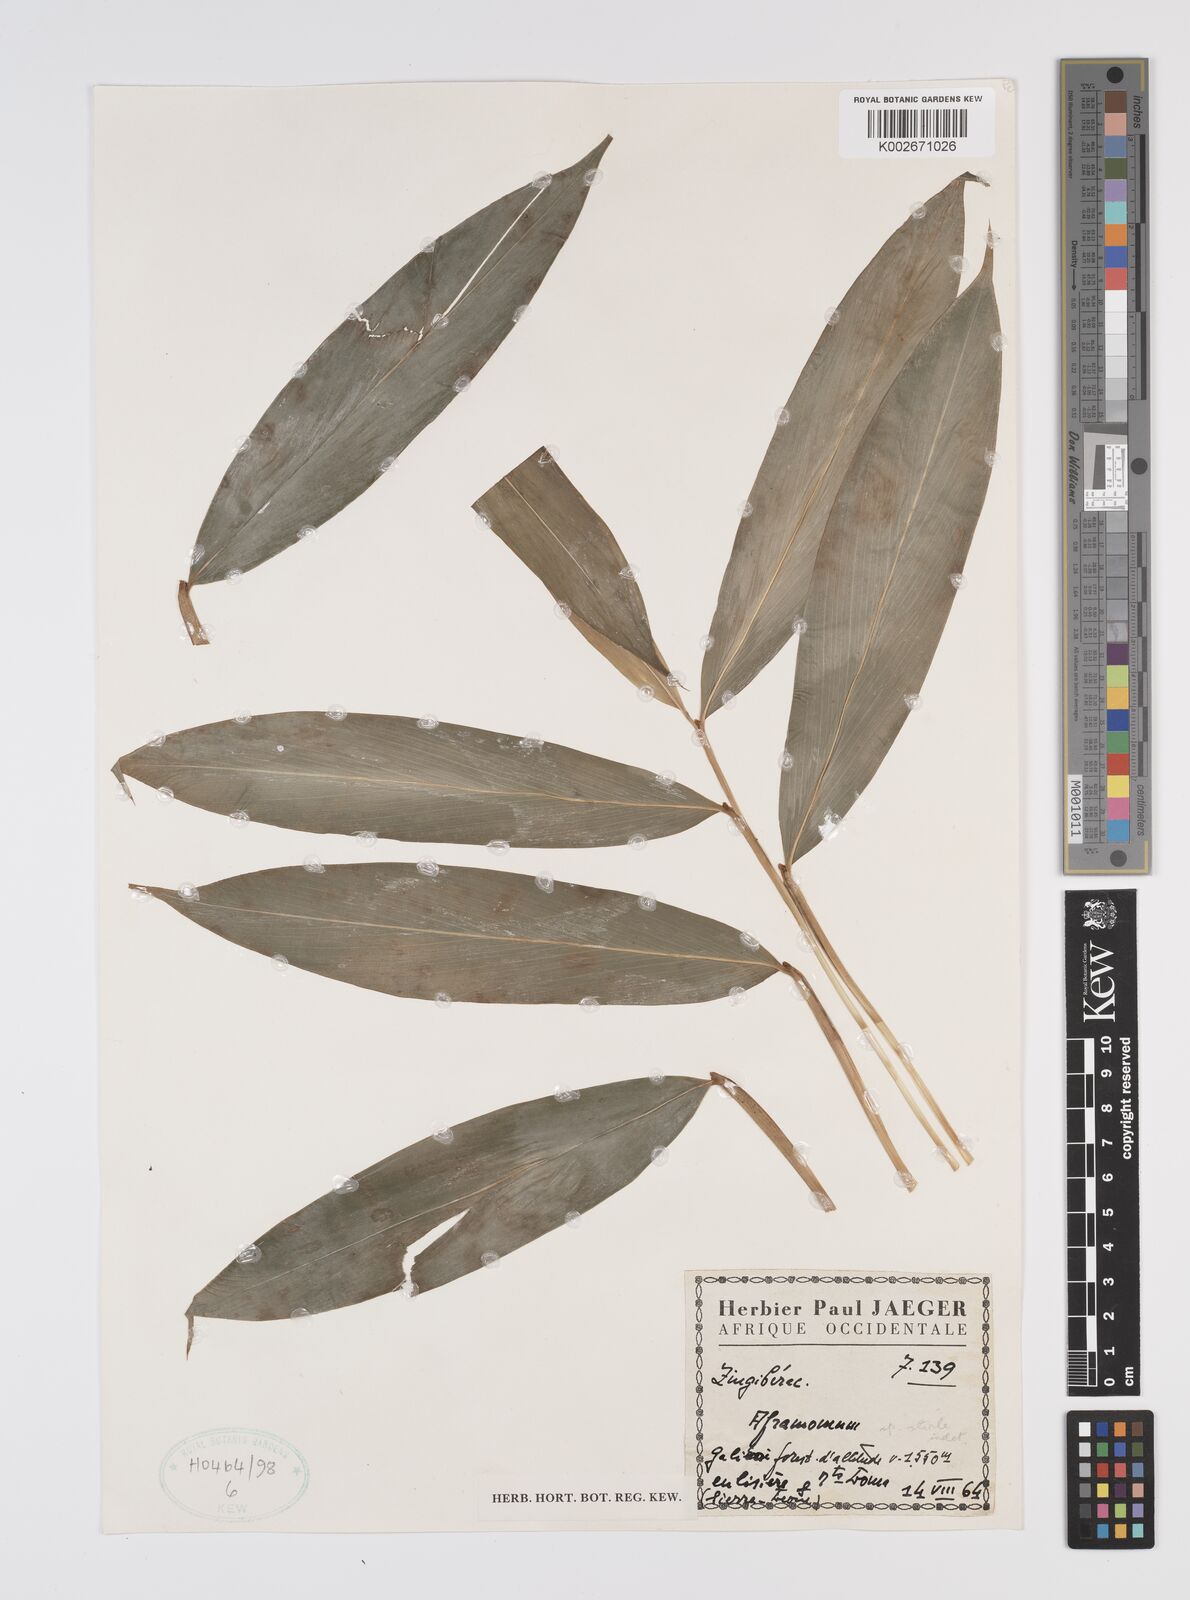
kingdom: Plantae
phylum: Tracheophyta
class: Liliopsida
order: Zingiberales
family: Zingiberaceae
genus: Aframomum
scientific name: Aframomum
